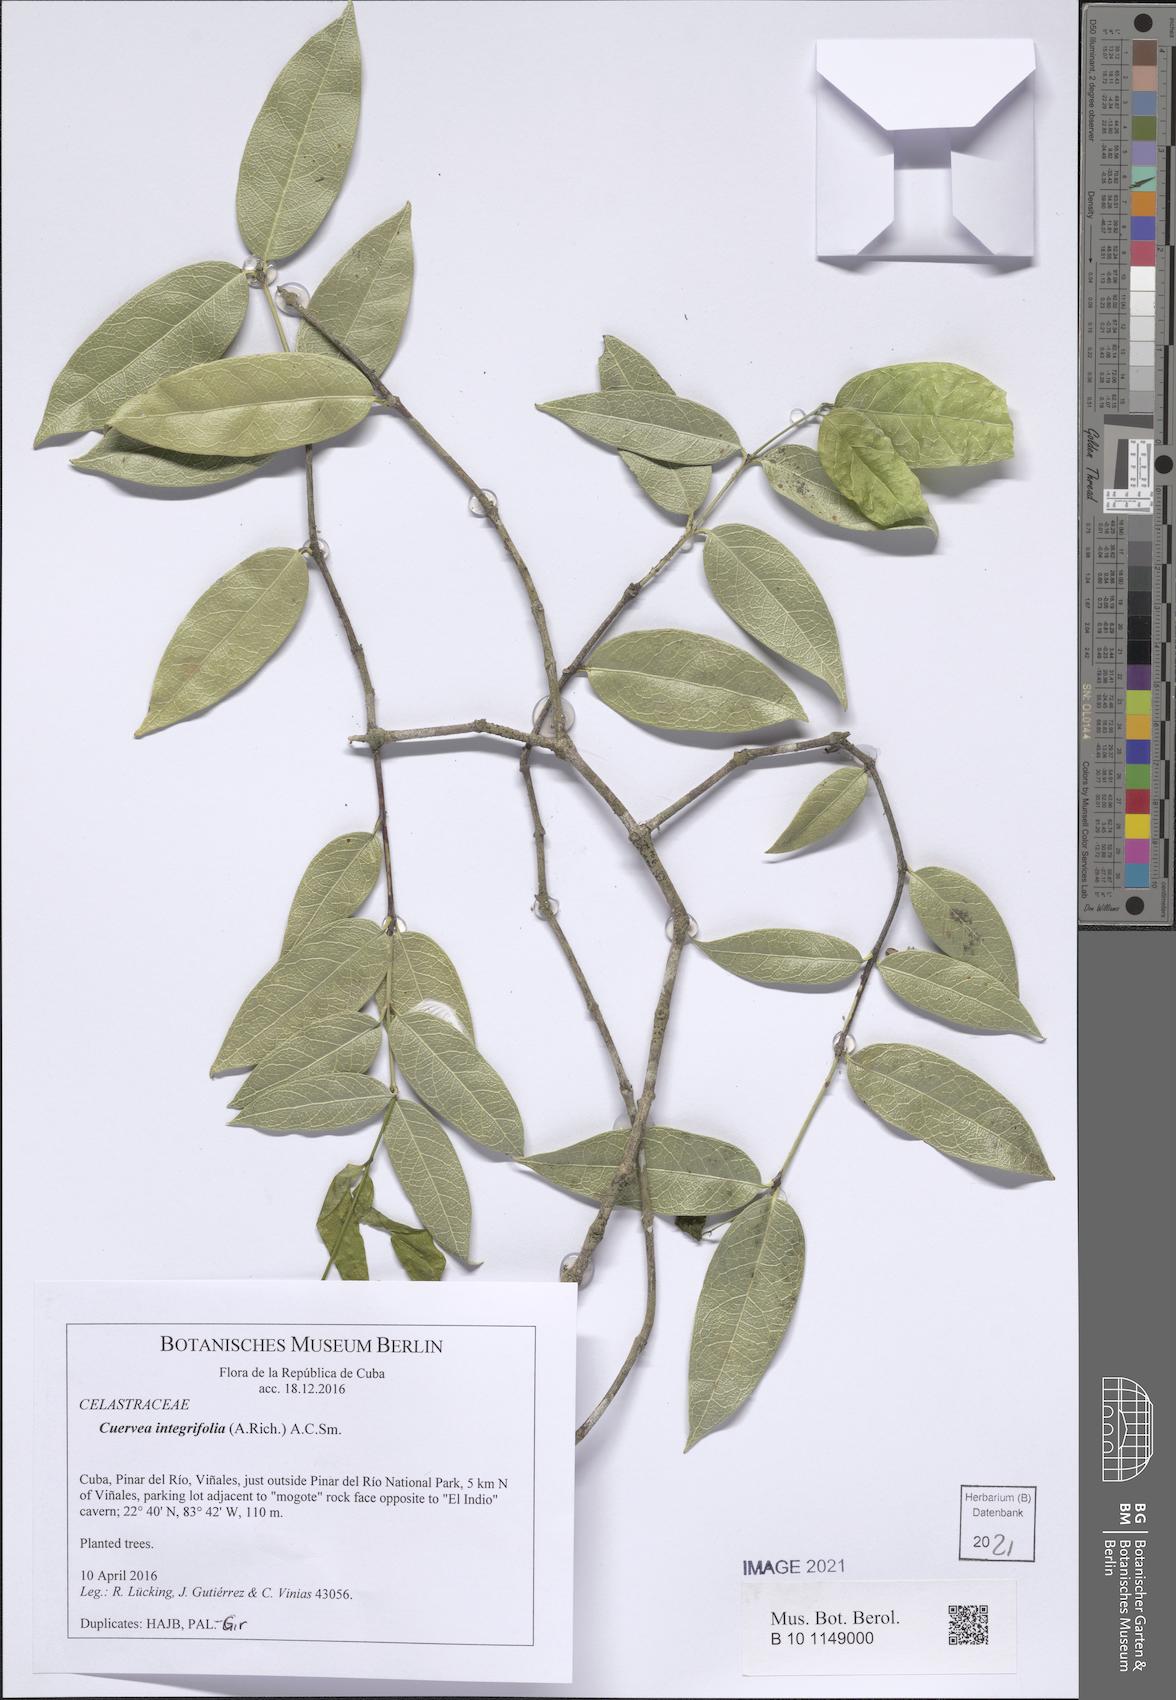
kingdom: Plantae
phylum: Tracheophyta
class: Magnoliopsida
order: Celastrales
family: Celastraceae
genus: Cuervea
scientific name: Cuervea integrifolia
